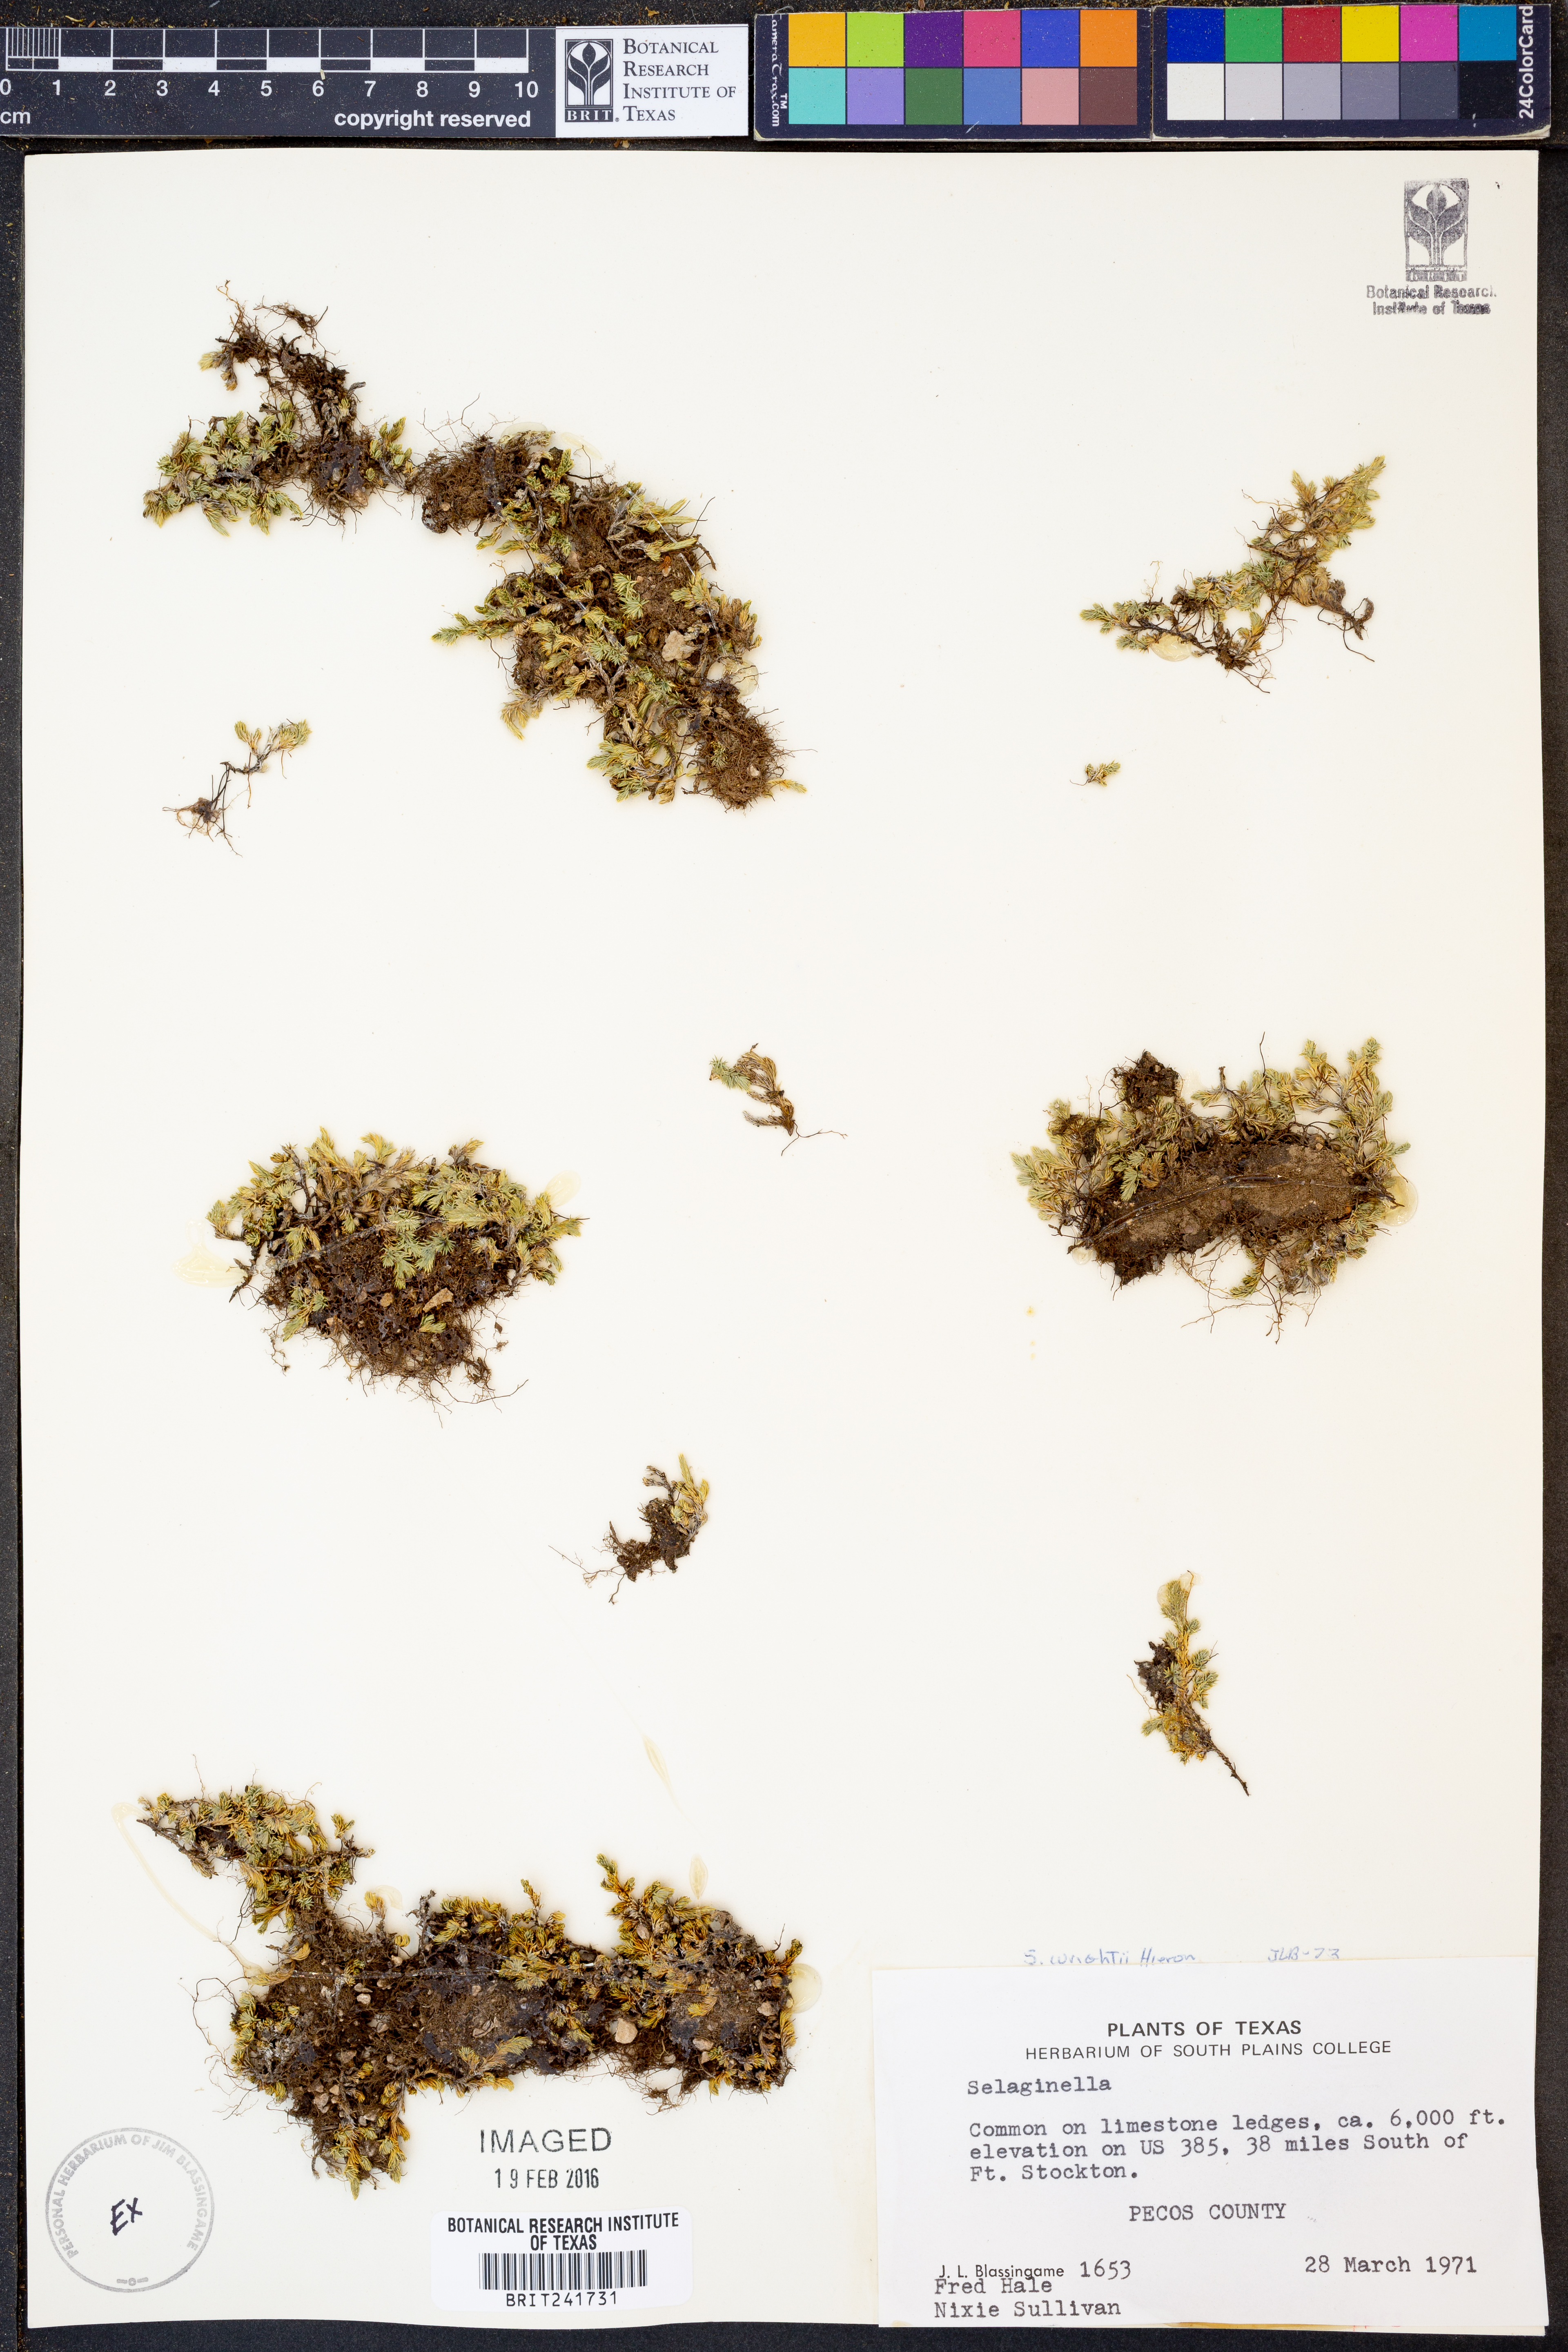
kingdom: Plantae
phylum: Tracheophyta
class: Lycopodiopsida
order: Selaginellales
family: Selaginellaceae
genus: Selaginella
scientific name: Selaginella wrightii
